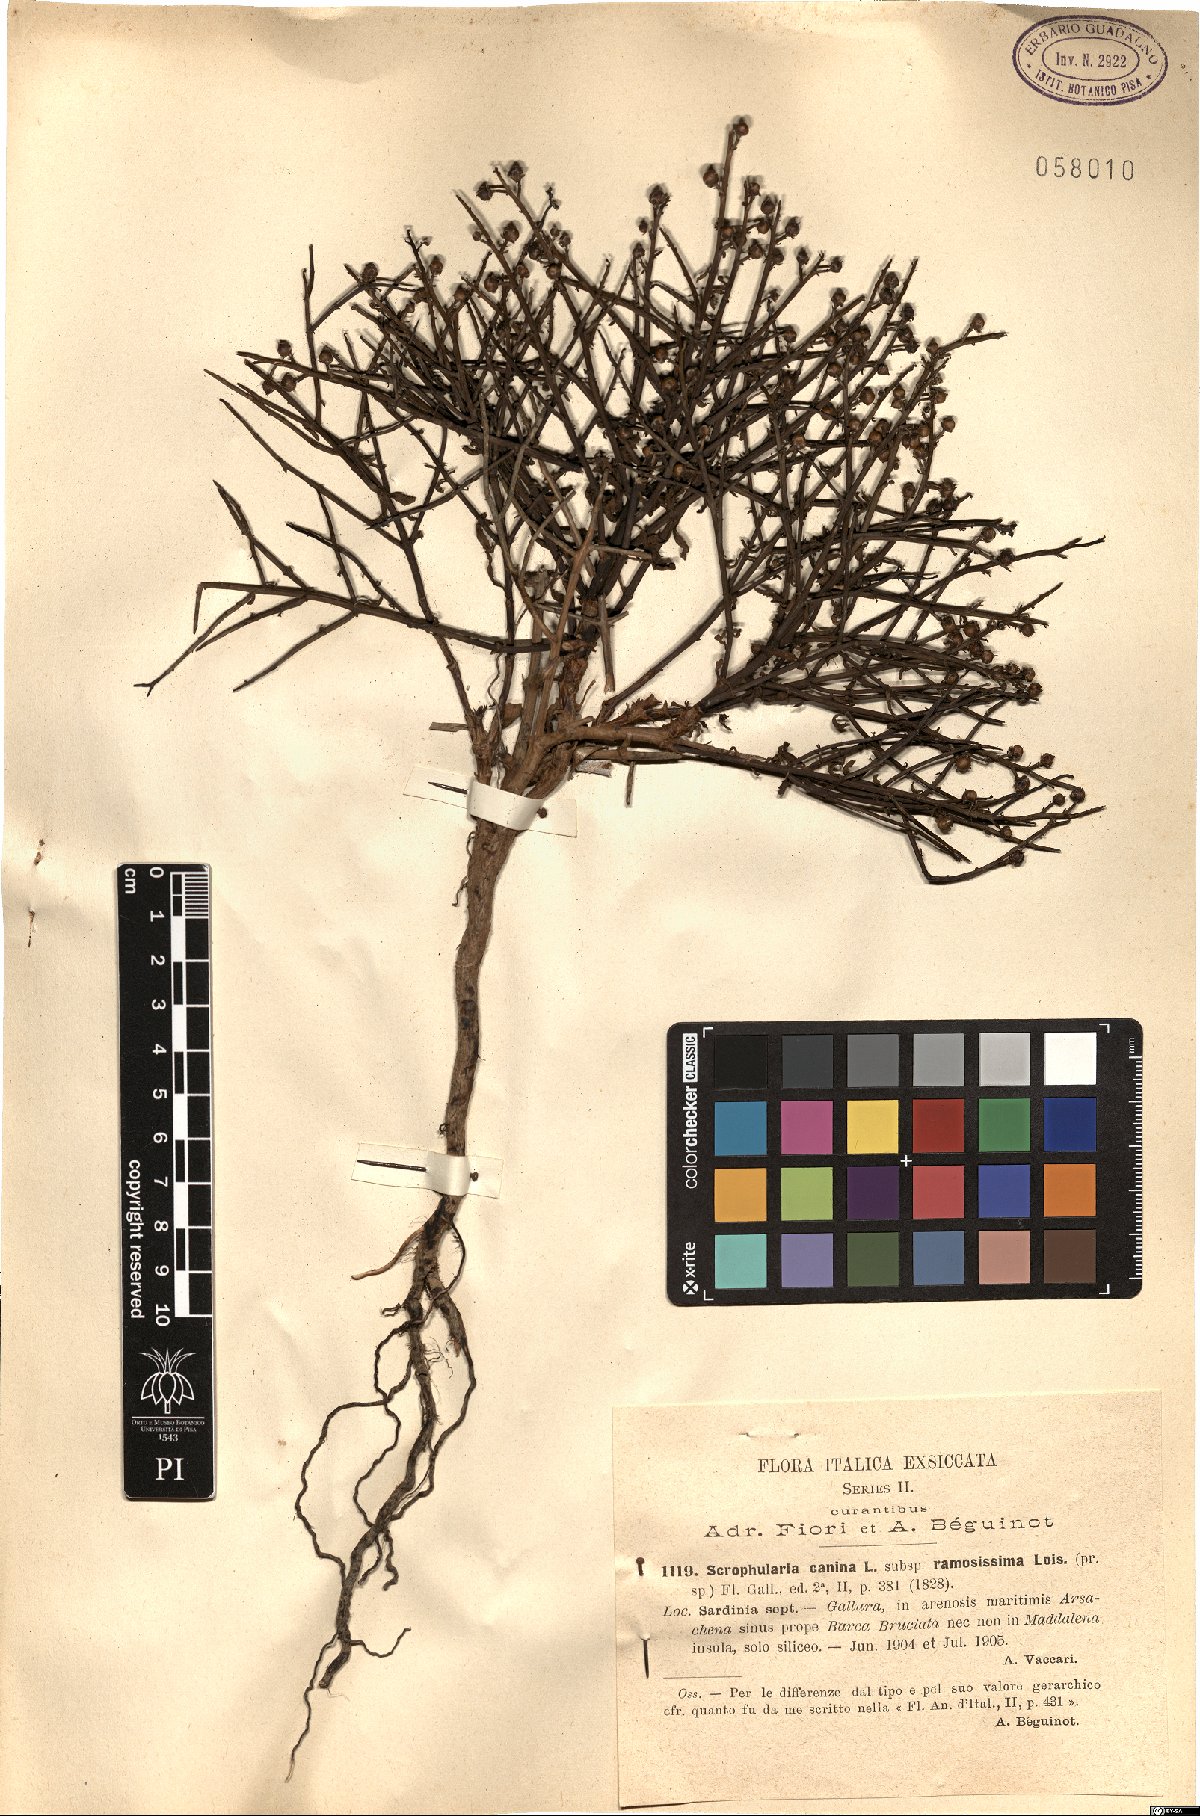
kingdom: Plantae
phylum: Tracheophyta
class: Magnoliopsida
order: Lamiales
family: Scrophulariaceae
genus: Scrophularia
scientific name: Scrophularia canina
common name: French figwort
